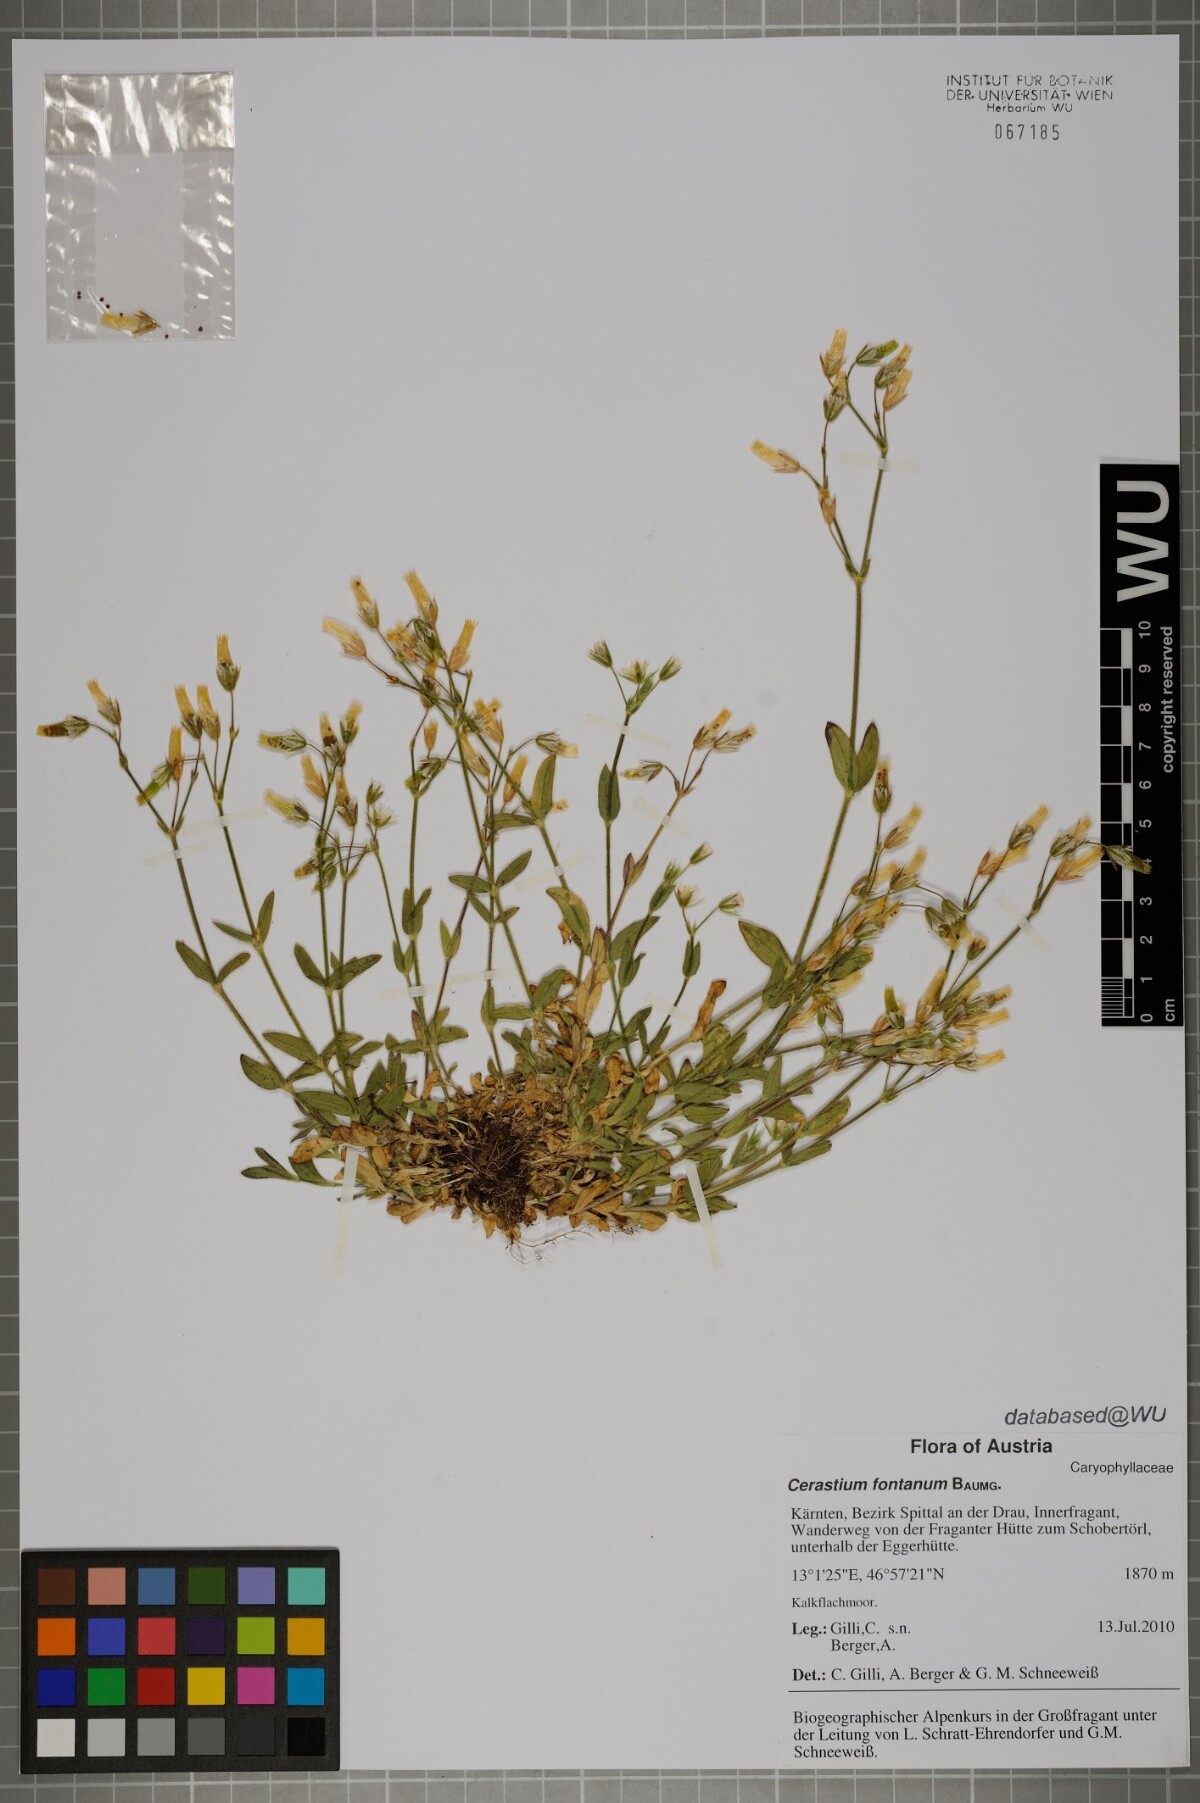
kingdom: Plantae
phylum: Tracheophyta
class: Magnoliopsida
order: Caryophyllales
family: Caryophyllaceae
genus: Cerastium
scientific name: Cerastium fontanum
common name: Common mouse-ear
